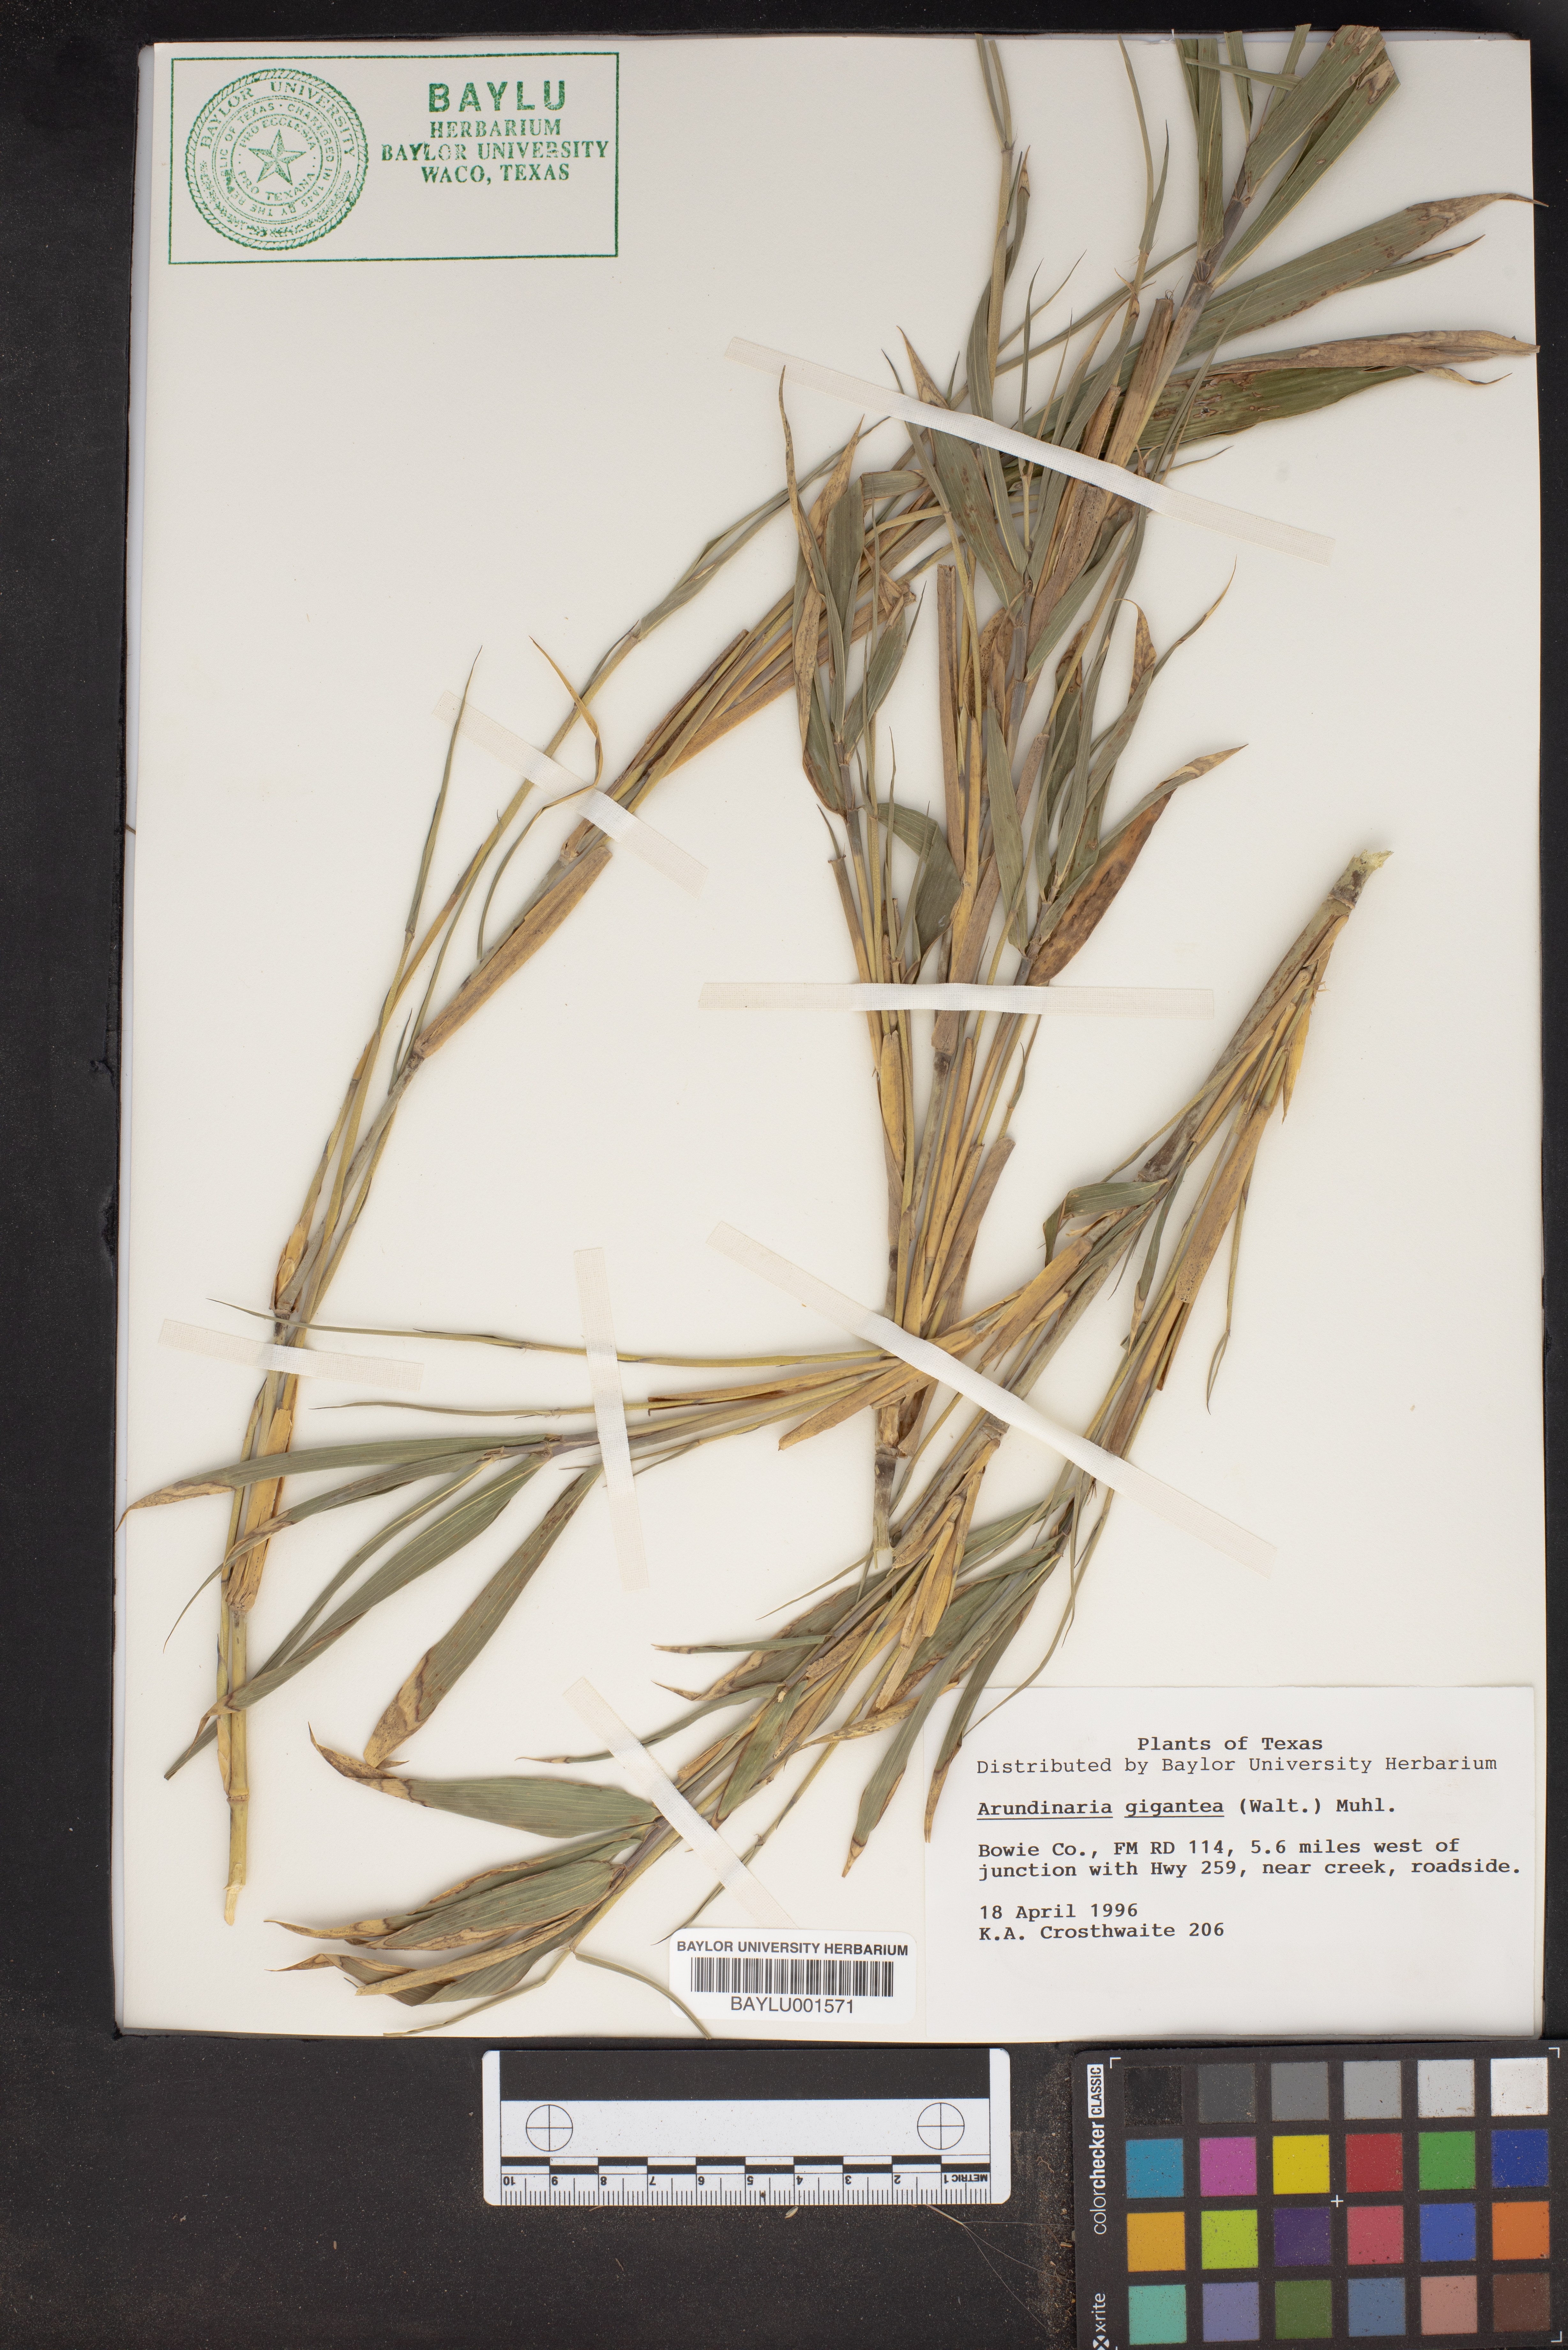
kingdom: Plantae
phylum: Tracheophyta
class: Liliopsida
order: Poales
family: Poaceae
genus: Arundinaria
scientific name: Arundinaria gigantea
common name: Giant cane
